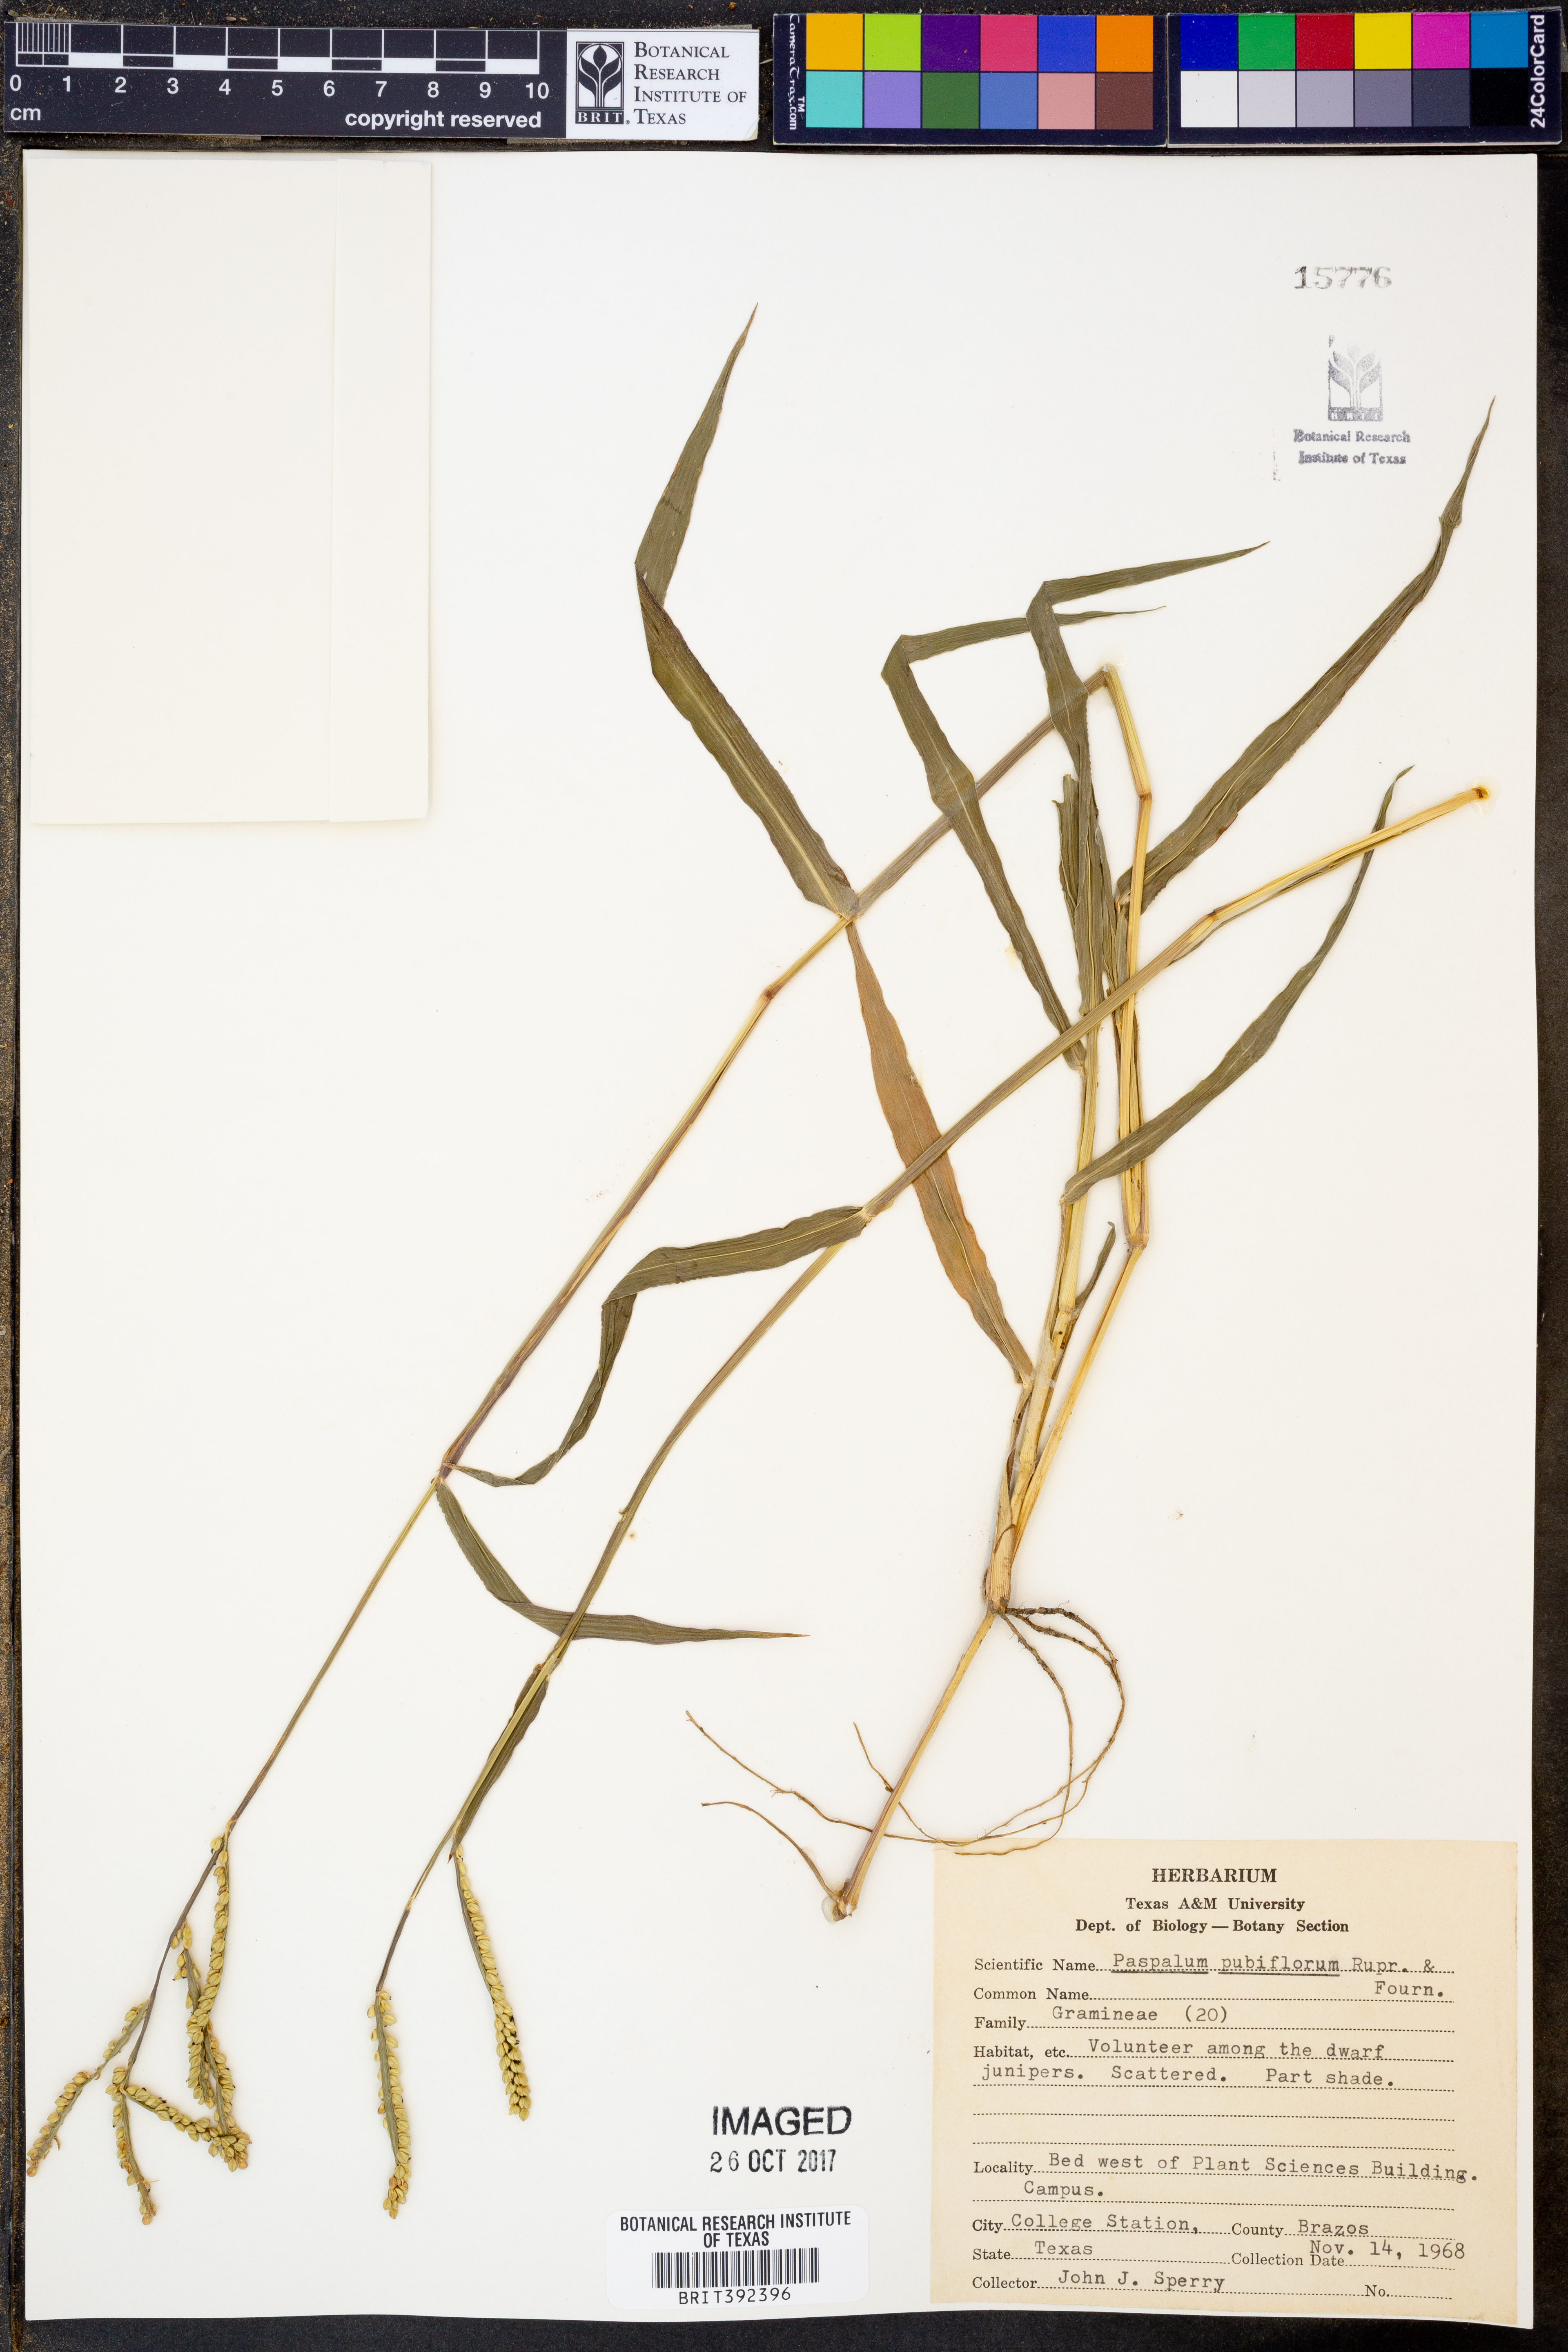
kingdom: Plantae
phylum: Tracheophyta
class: Liliopsida
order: Poales
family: Poaceae
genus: Paspalum
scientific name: Paspalum pubiflorum
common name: Hairy-seed paspalum
